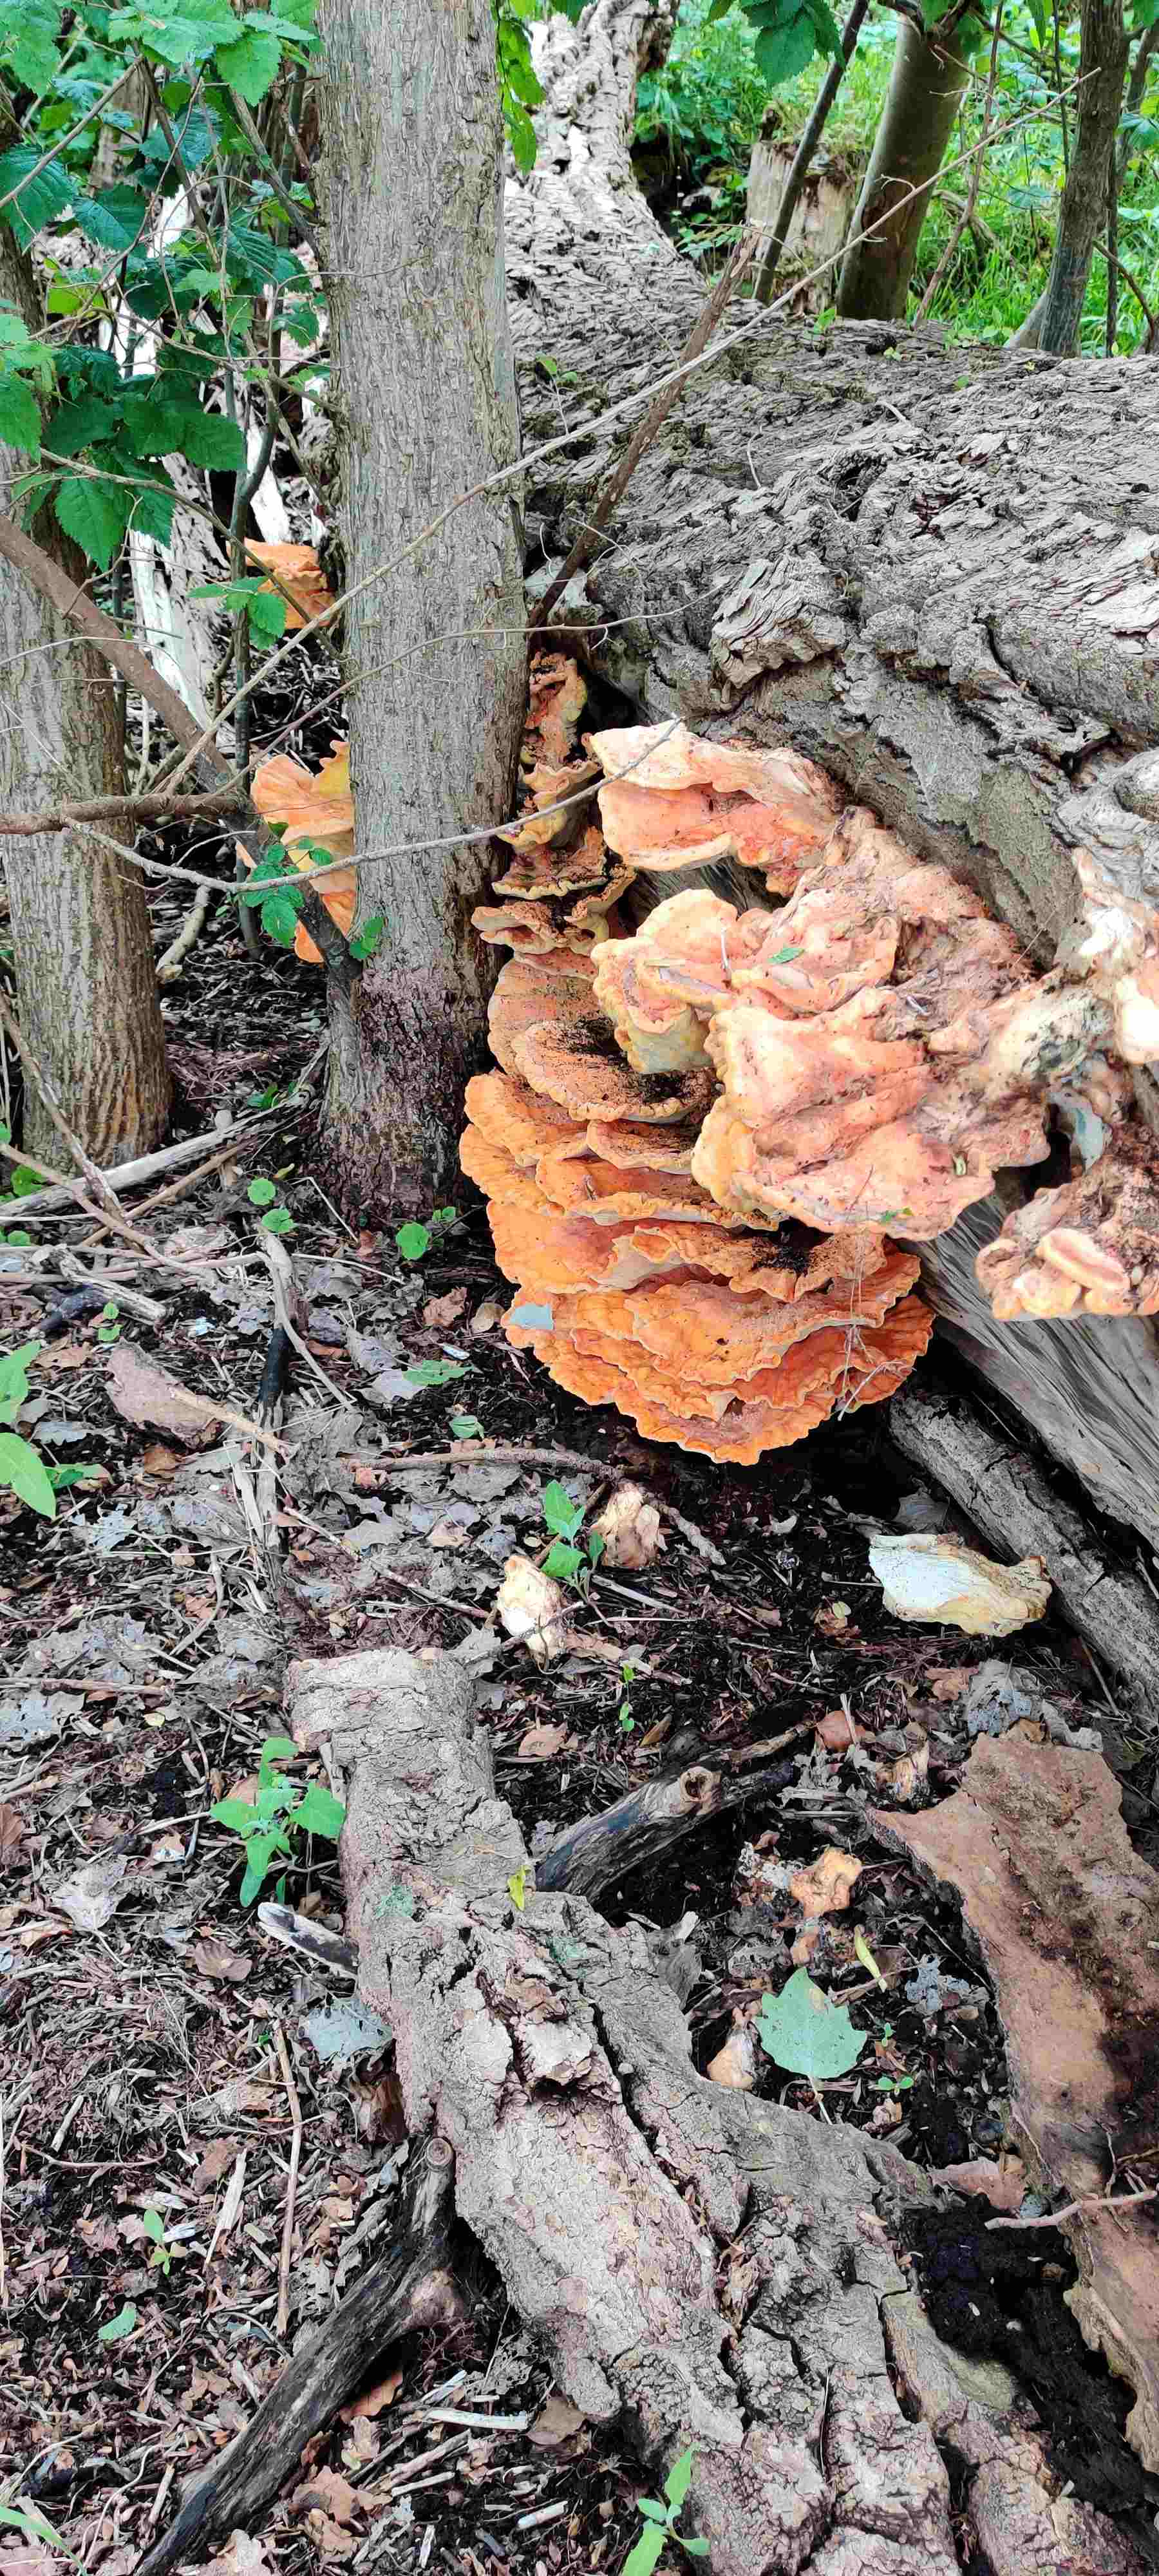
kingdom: Fungi
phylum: Basidiomycota
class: Agaricomycetes
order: Polyporales
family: Laetiporaceae
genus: Laetiporus
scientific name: Laetiporus sulphureus
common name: svovlporesvamp
